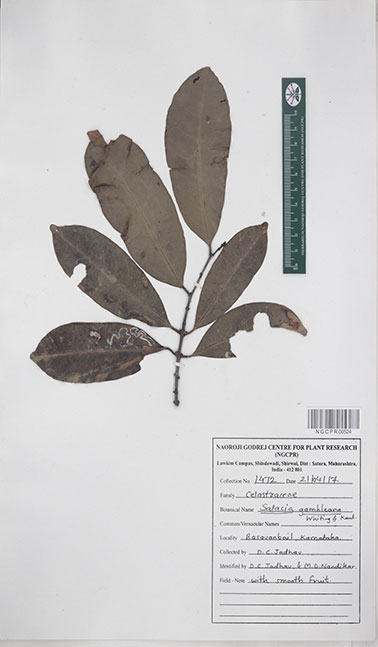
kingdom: Plantae
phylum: Tracheophyta
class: Magnoliopsida
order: Celastrales
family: Celastraceae
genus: Salacia
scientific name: Salacia gambleana
